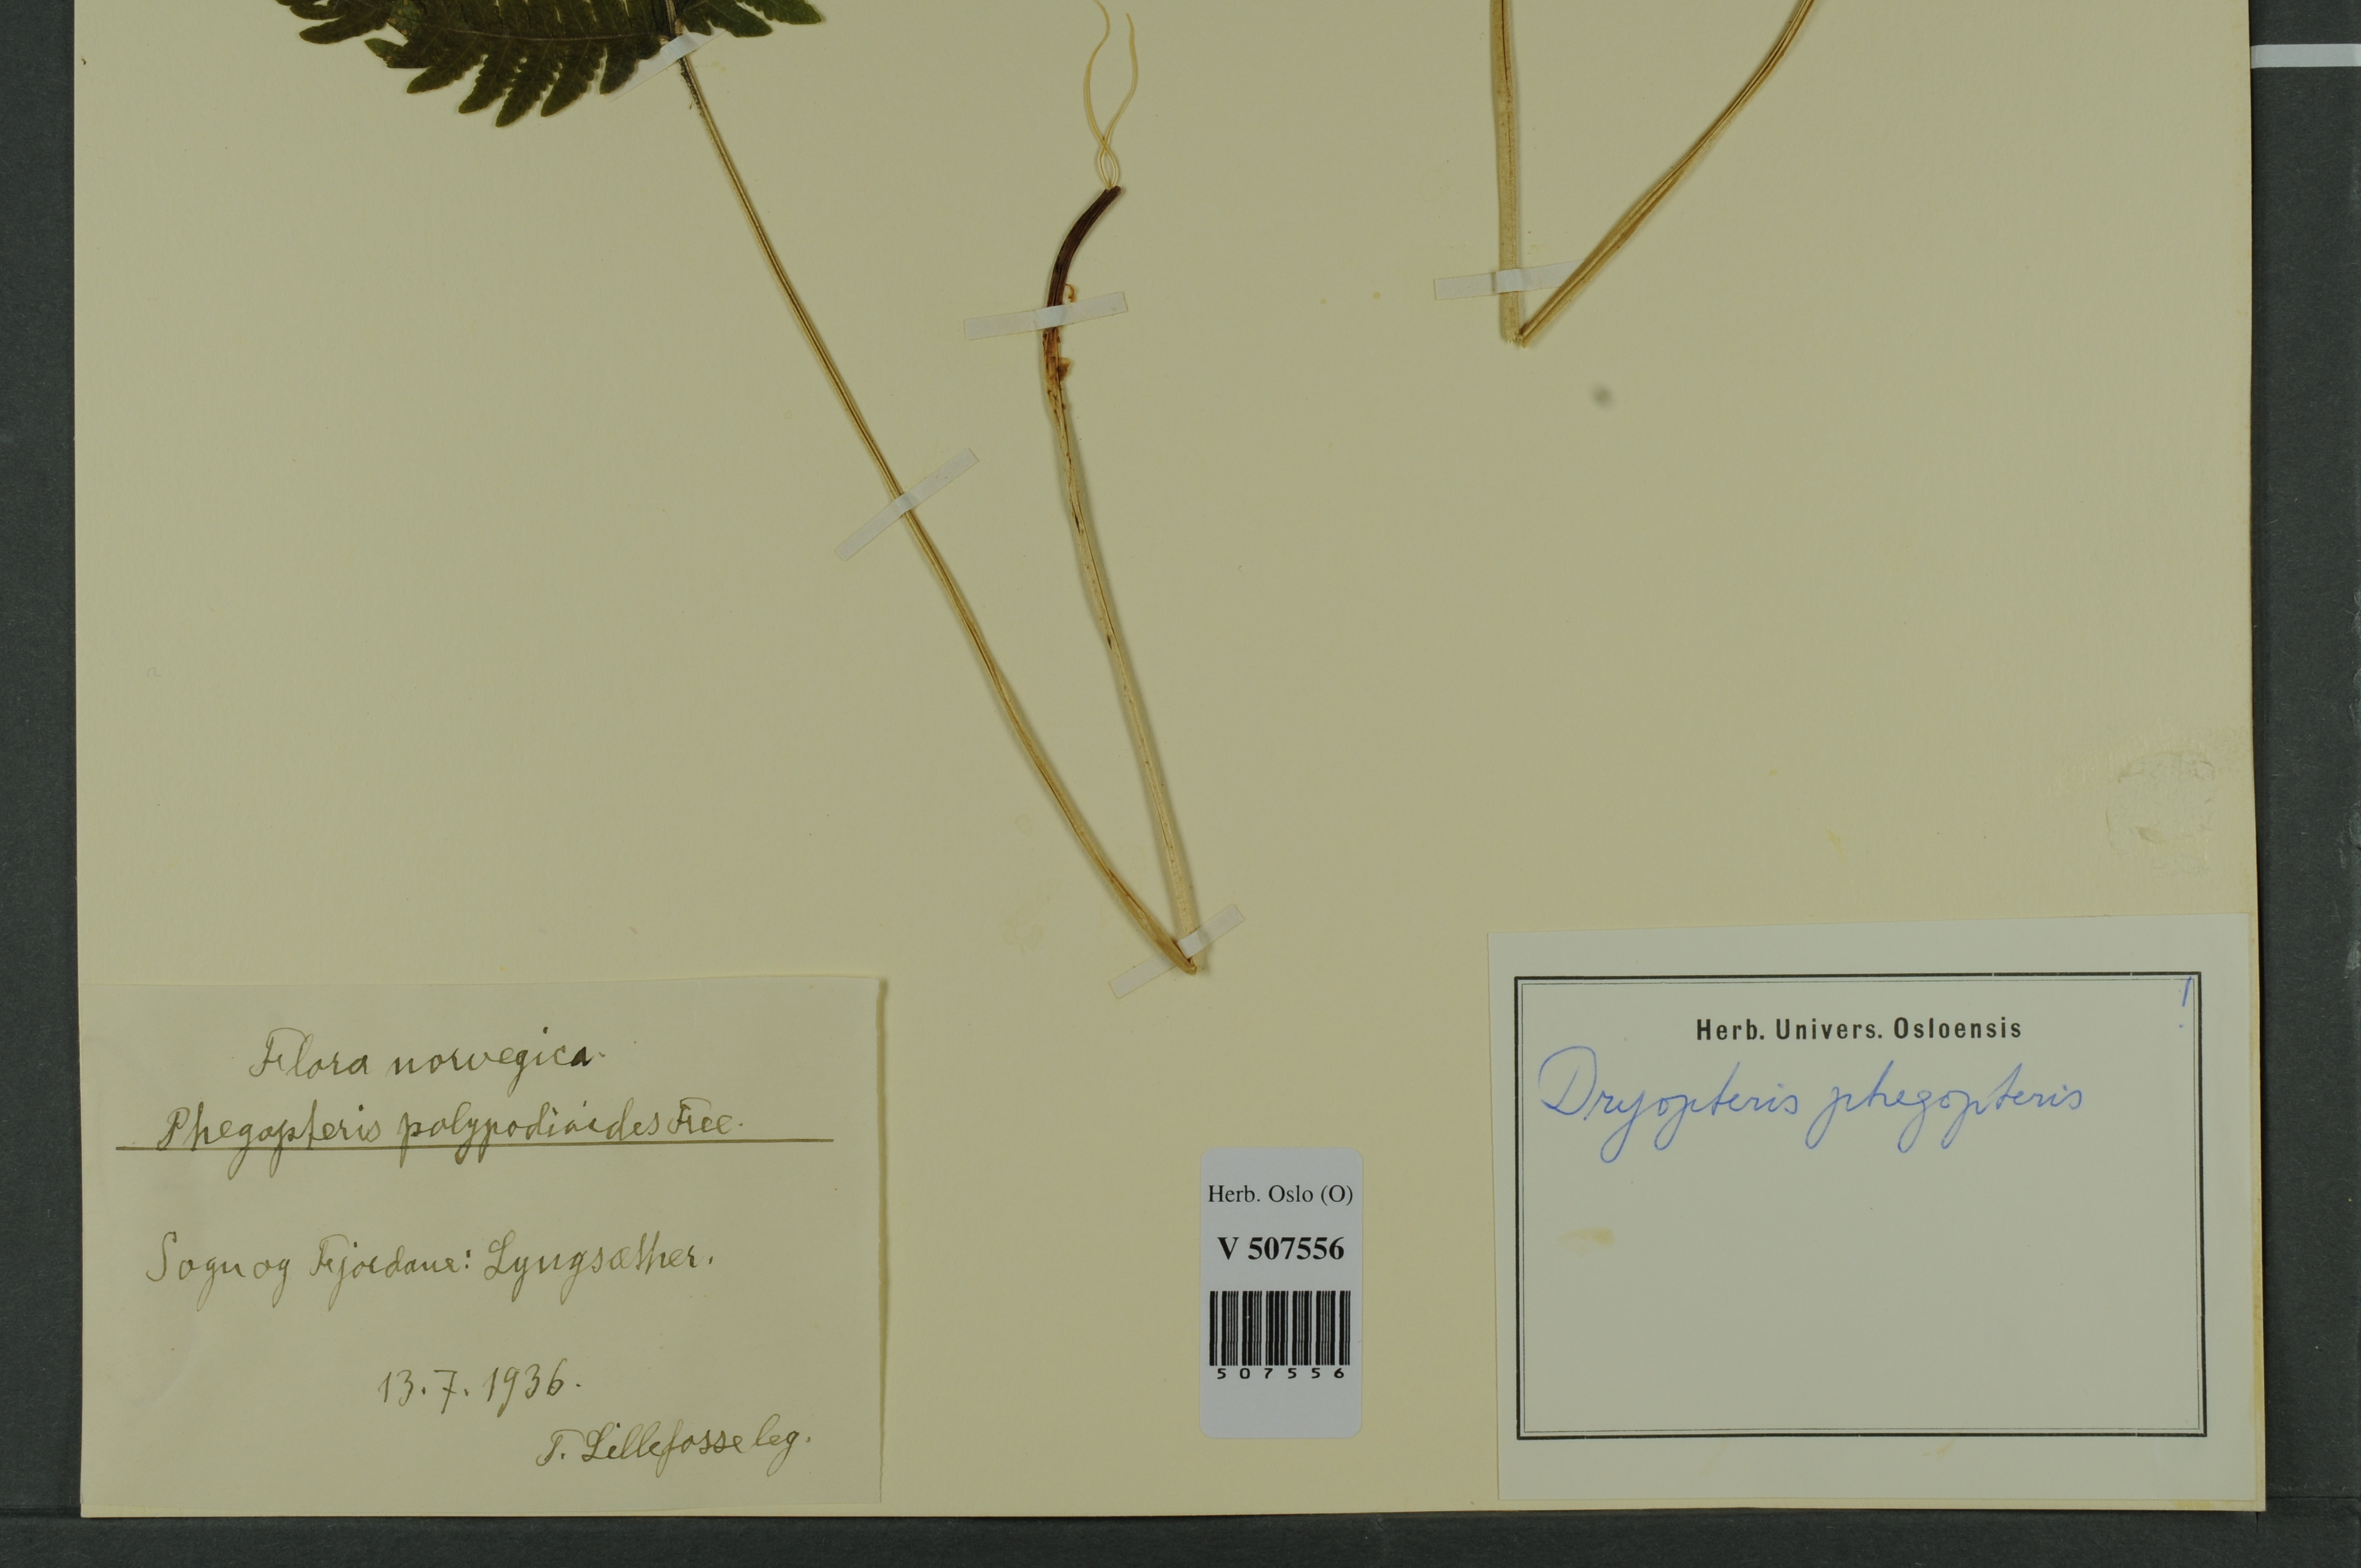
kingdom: Plantae
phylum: Tracheophyta
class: Polypodiopsida
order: Polypodiales
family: Thelypteridaceae
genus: Phegopteris
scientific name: Phegopteris connectilis
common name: Beech fern
